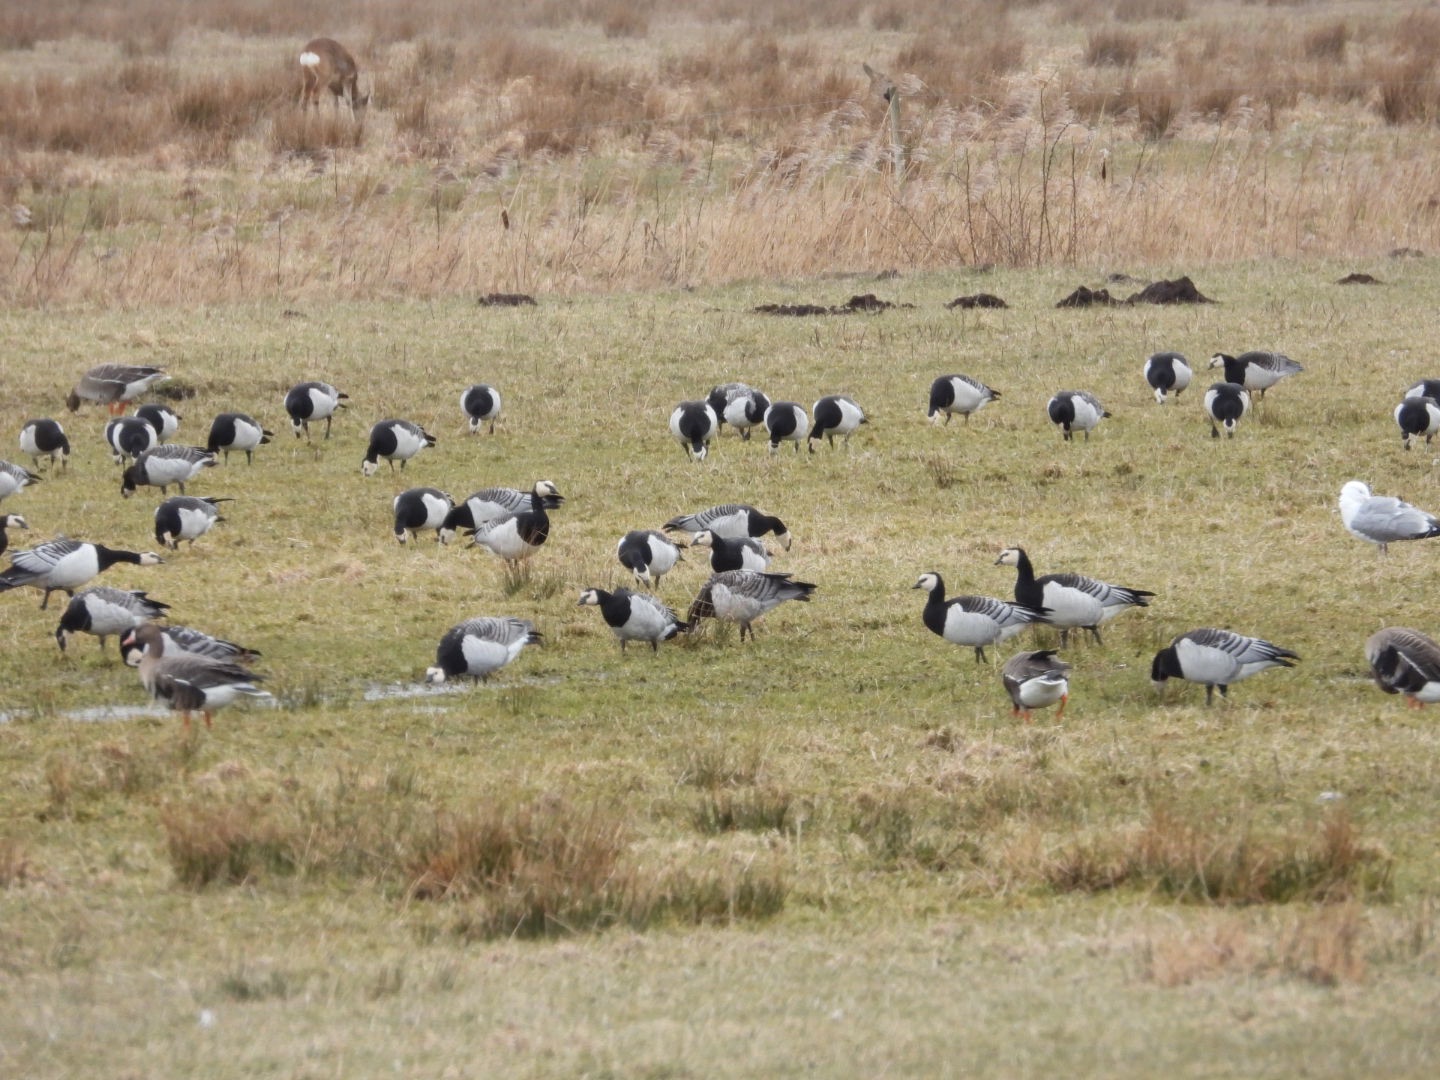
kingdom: Animalia
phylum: Chordata
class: Aves
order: Anseriformes
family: Anatidae
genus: Branta
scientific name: Branta leucopsis
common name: Bramgås
